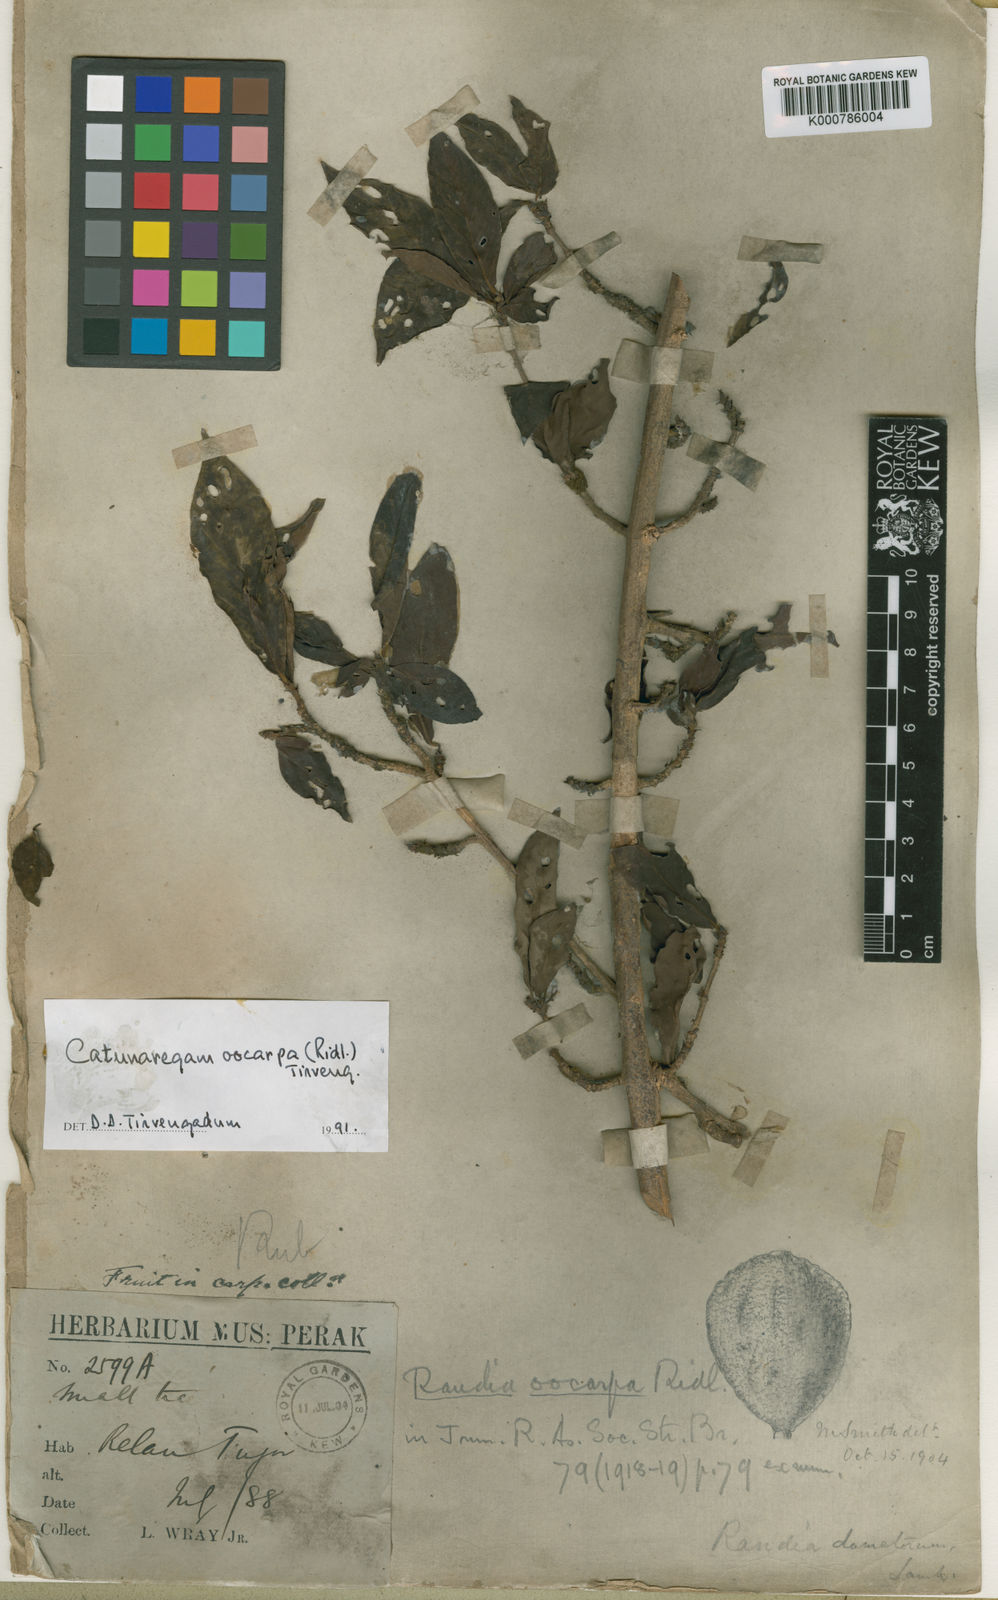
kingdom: Plantae
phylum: Tracheophyta
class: Magnoliopsida
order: Gentianales
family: Rubiaceae
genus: Catunaregam
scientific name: Catunaregam oocarpa
